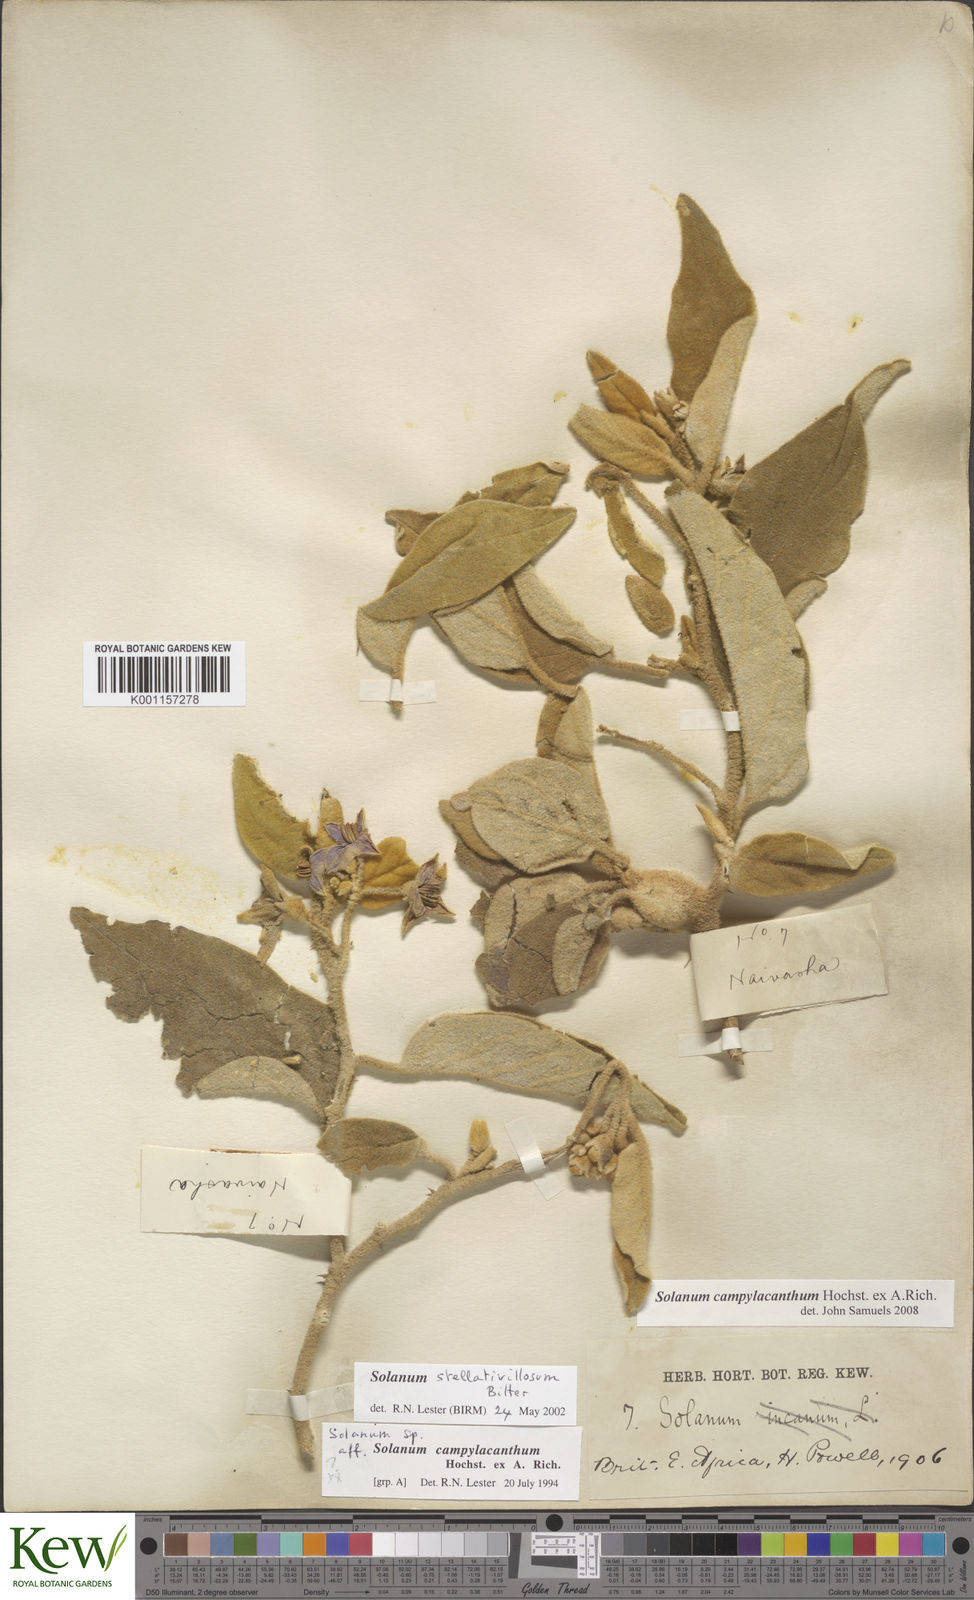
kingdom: Plantae
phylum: Tracheophyta
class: Magnoliopsida
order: Solanales
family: Solanaceae
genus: Solanum
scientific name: Solanum campylacanthum
